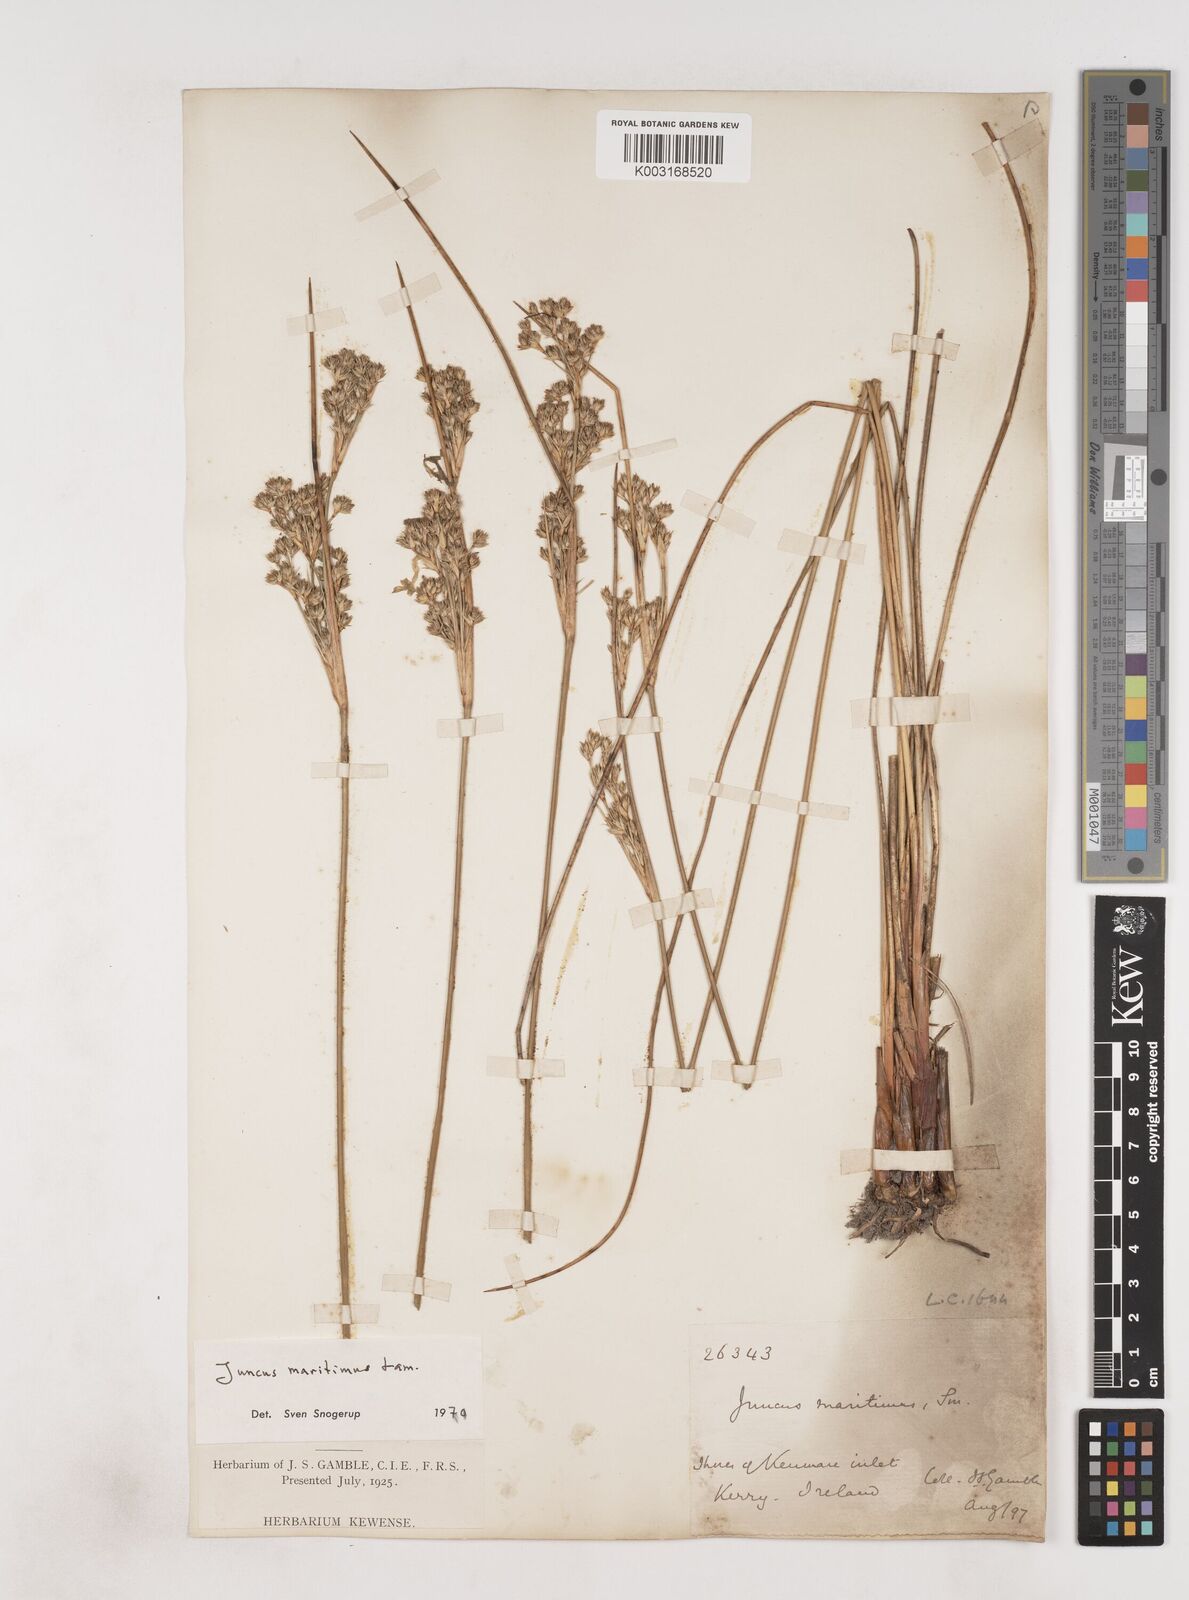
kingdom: Plantae
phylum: Tracheophyta
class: Liliopsida
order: Poales
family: Juncaceae
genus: Juncus
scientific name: Juncus maritimus
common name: Sea rush
